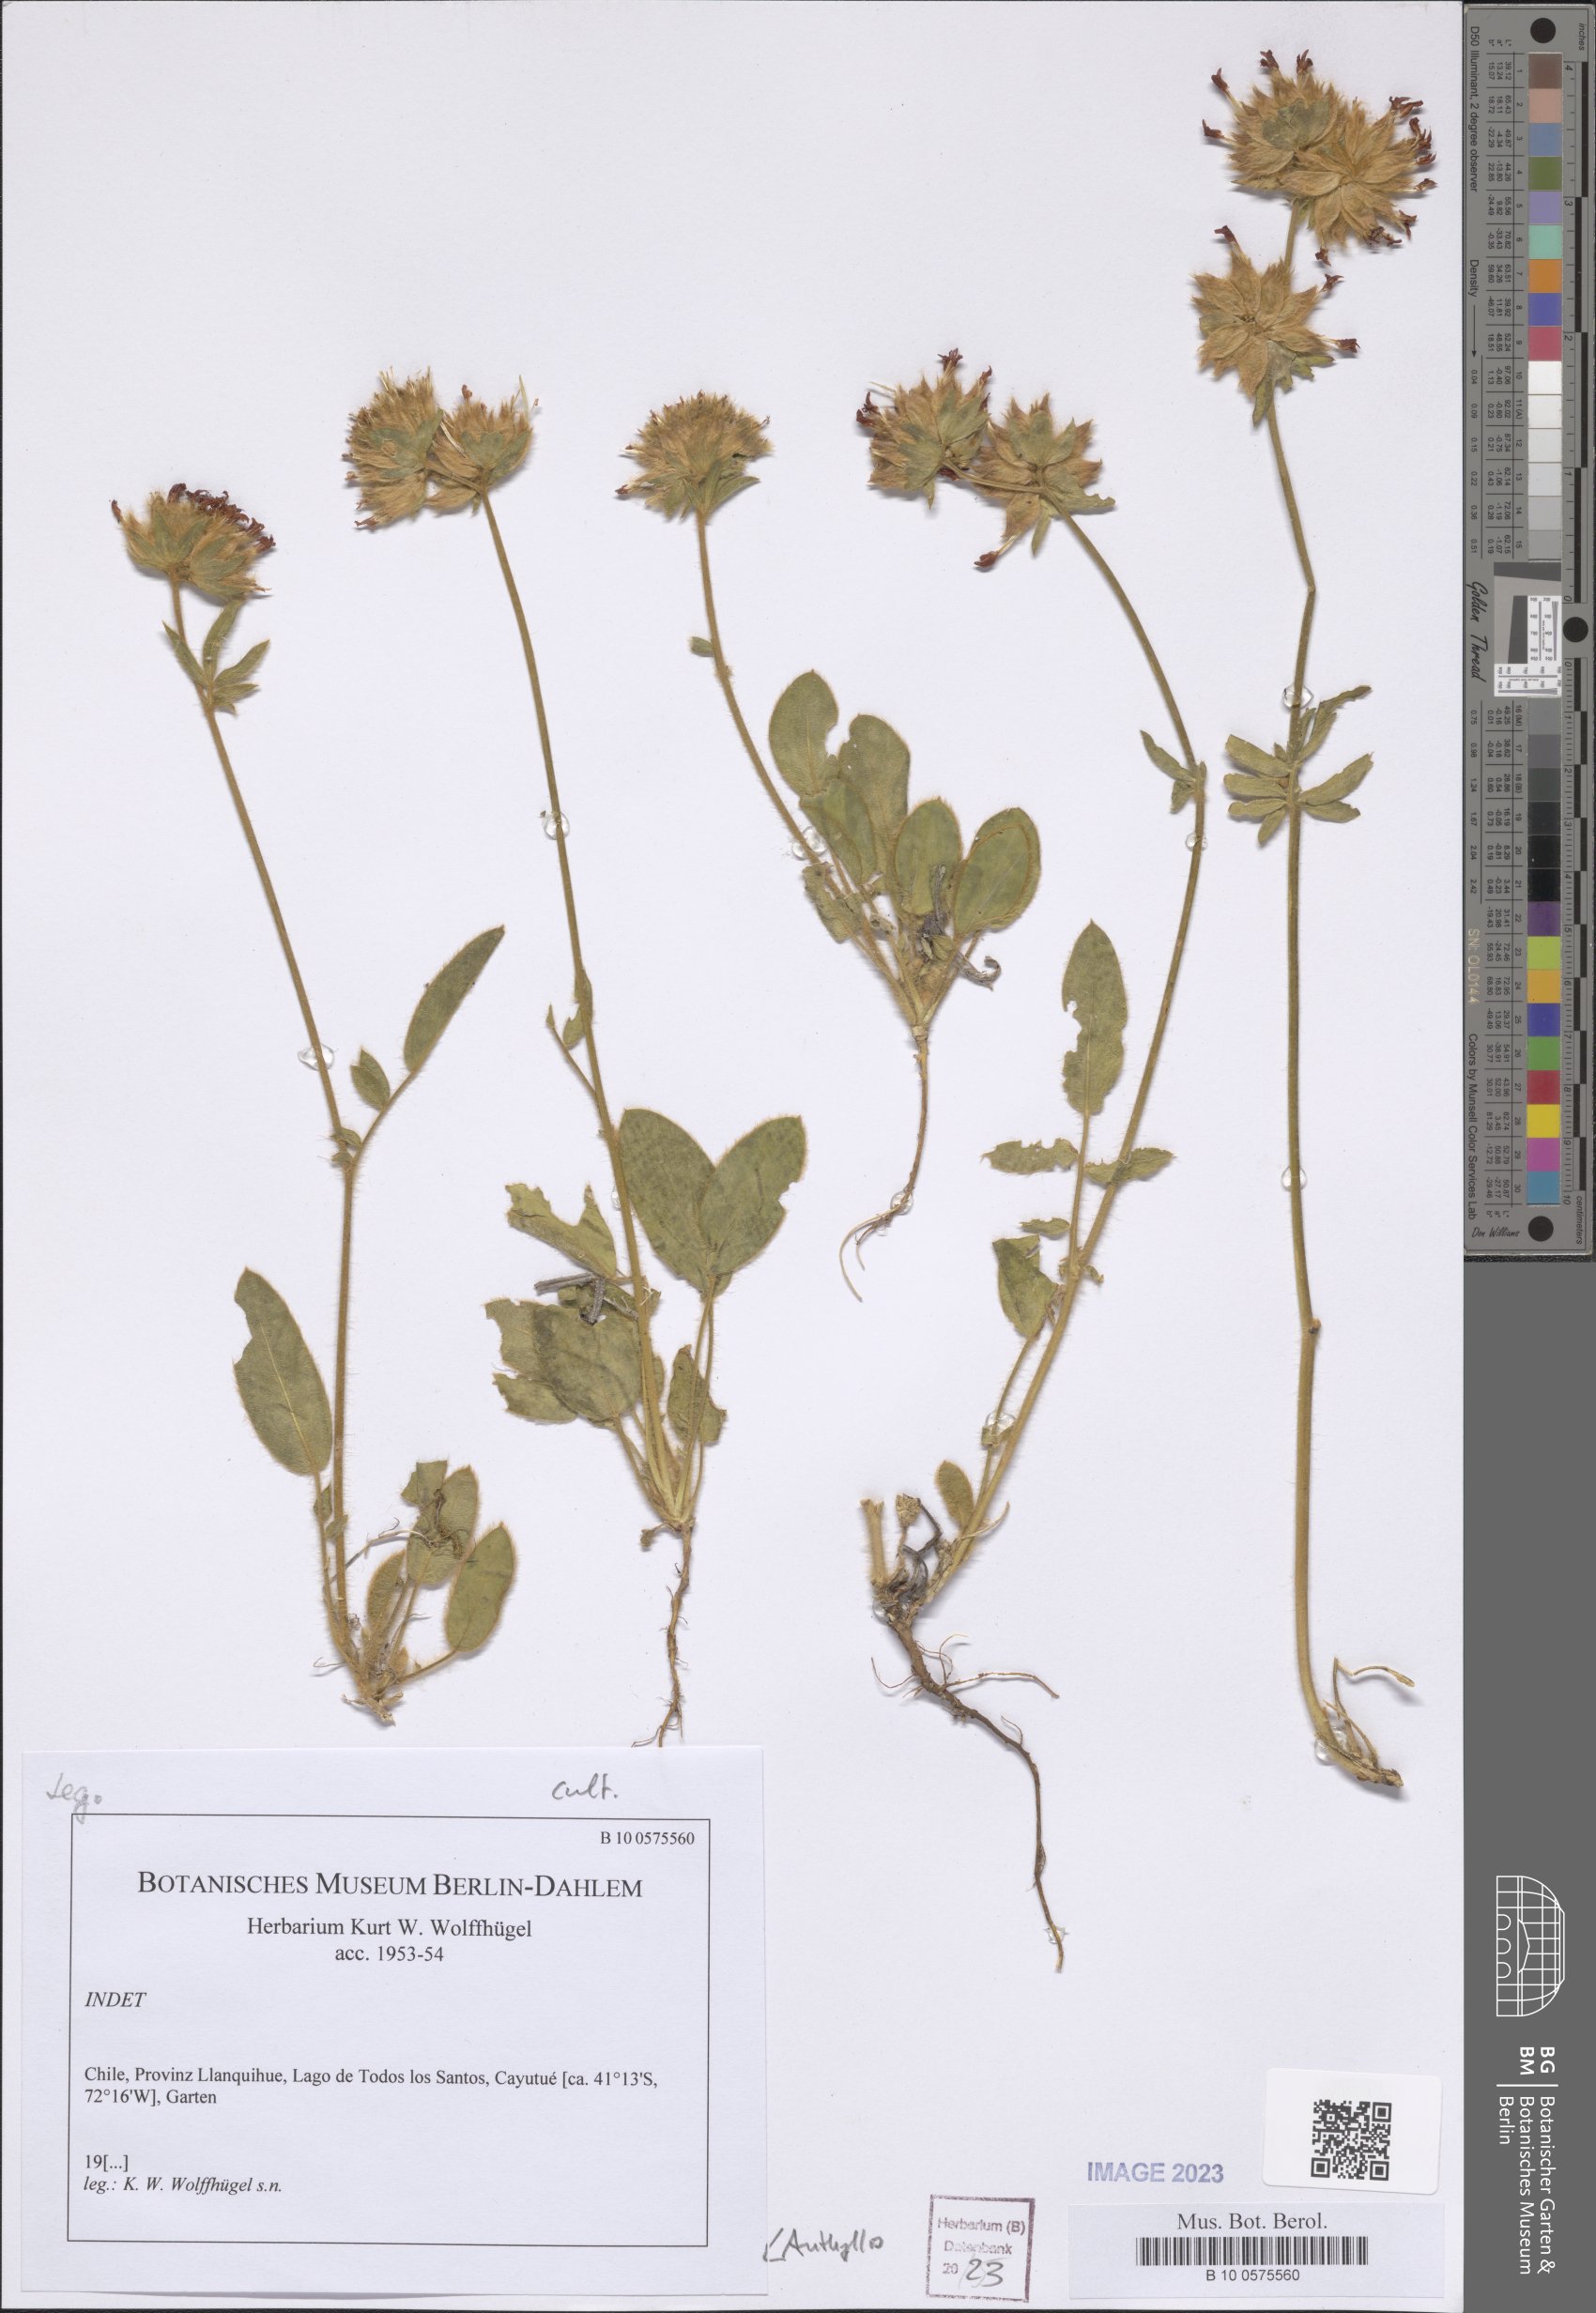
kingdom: Plantae
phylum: Tracheophyta
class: Magnoliopsida
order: Fabales
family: Fabaceae
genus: Anthyllis
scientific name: Anthyllis
